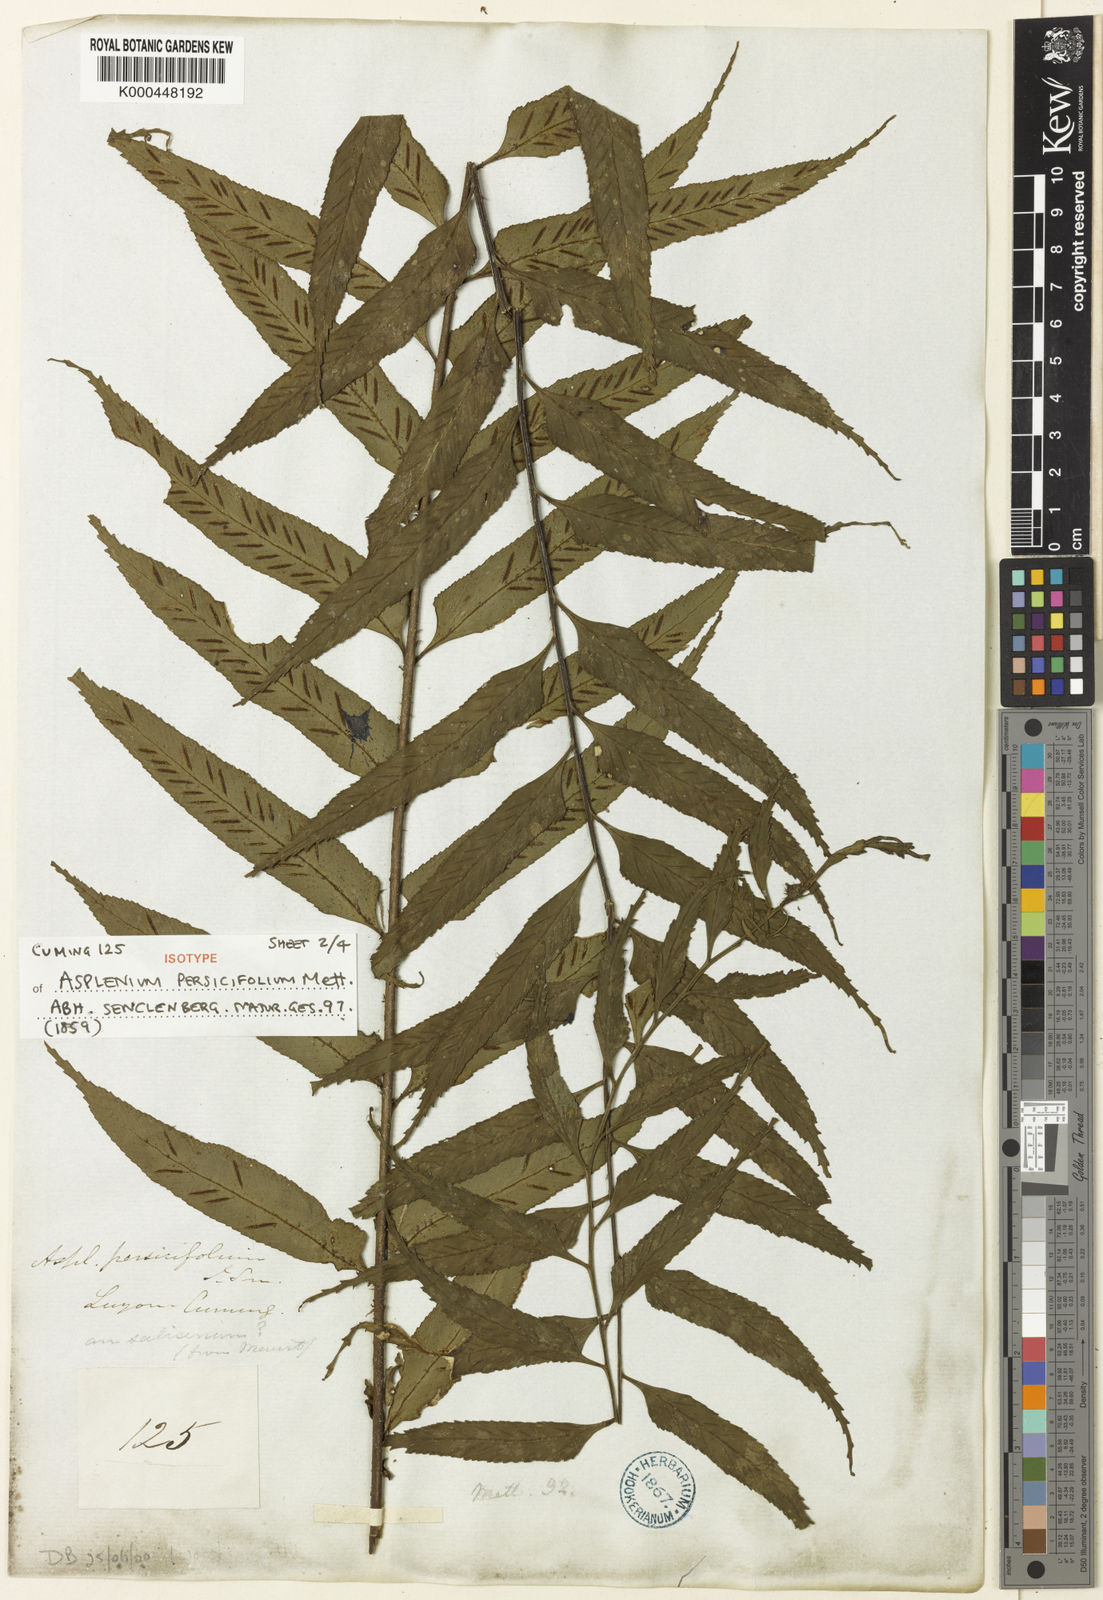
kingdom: Plantae
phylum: Tracheophyta
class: Polypodiopsida
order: Polypodiales
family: Aspleniaceae
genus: Asplenium
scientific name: Asplenium
